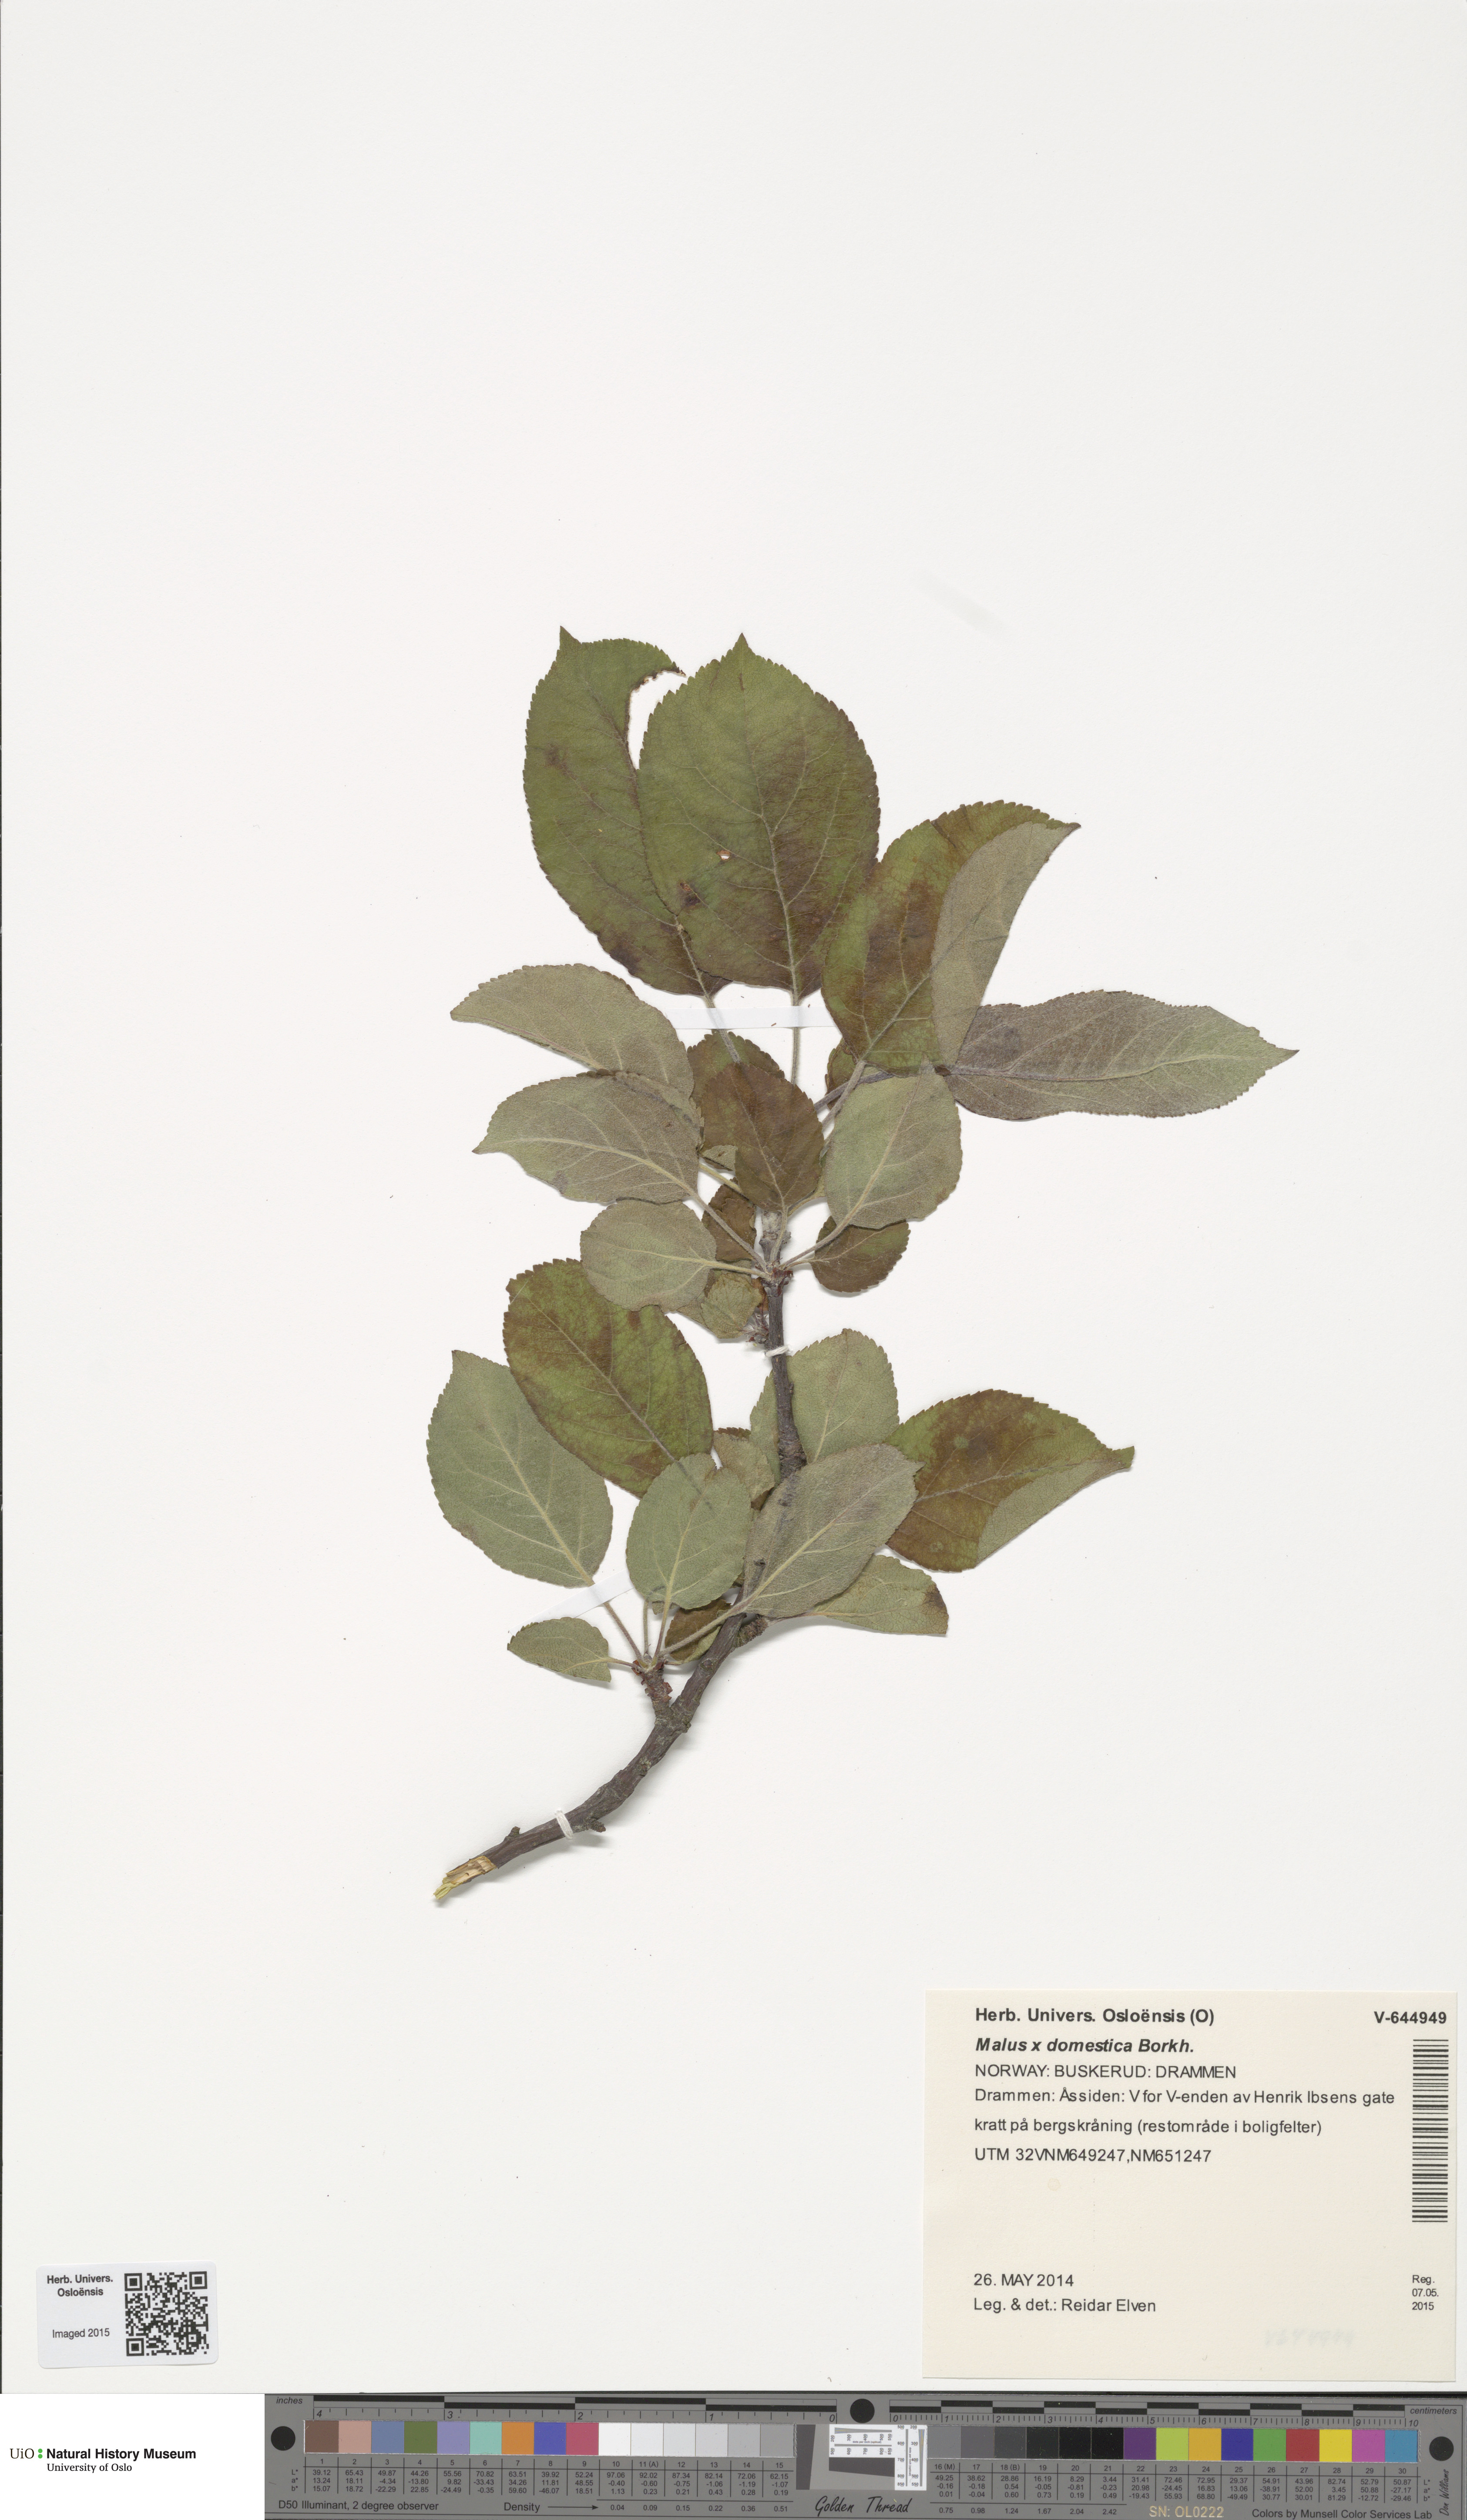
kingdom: Plantae
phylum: Tracheophyta
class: Magnoliopsida
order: Rosales
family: Rosaceae
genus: Malus
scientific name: Malus domestica
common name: Apple
